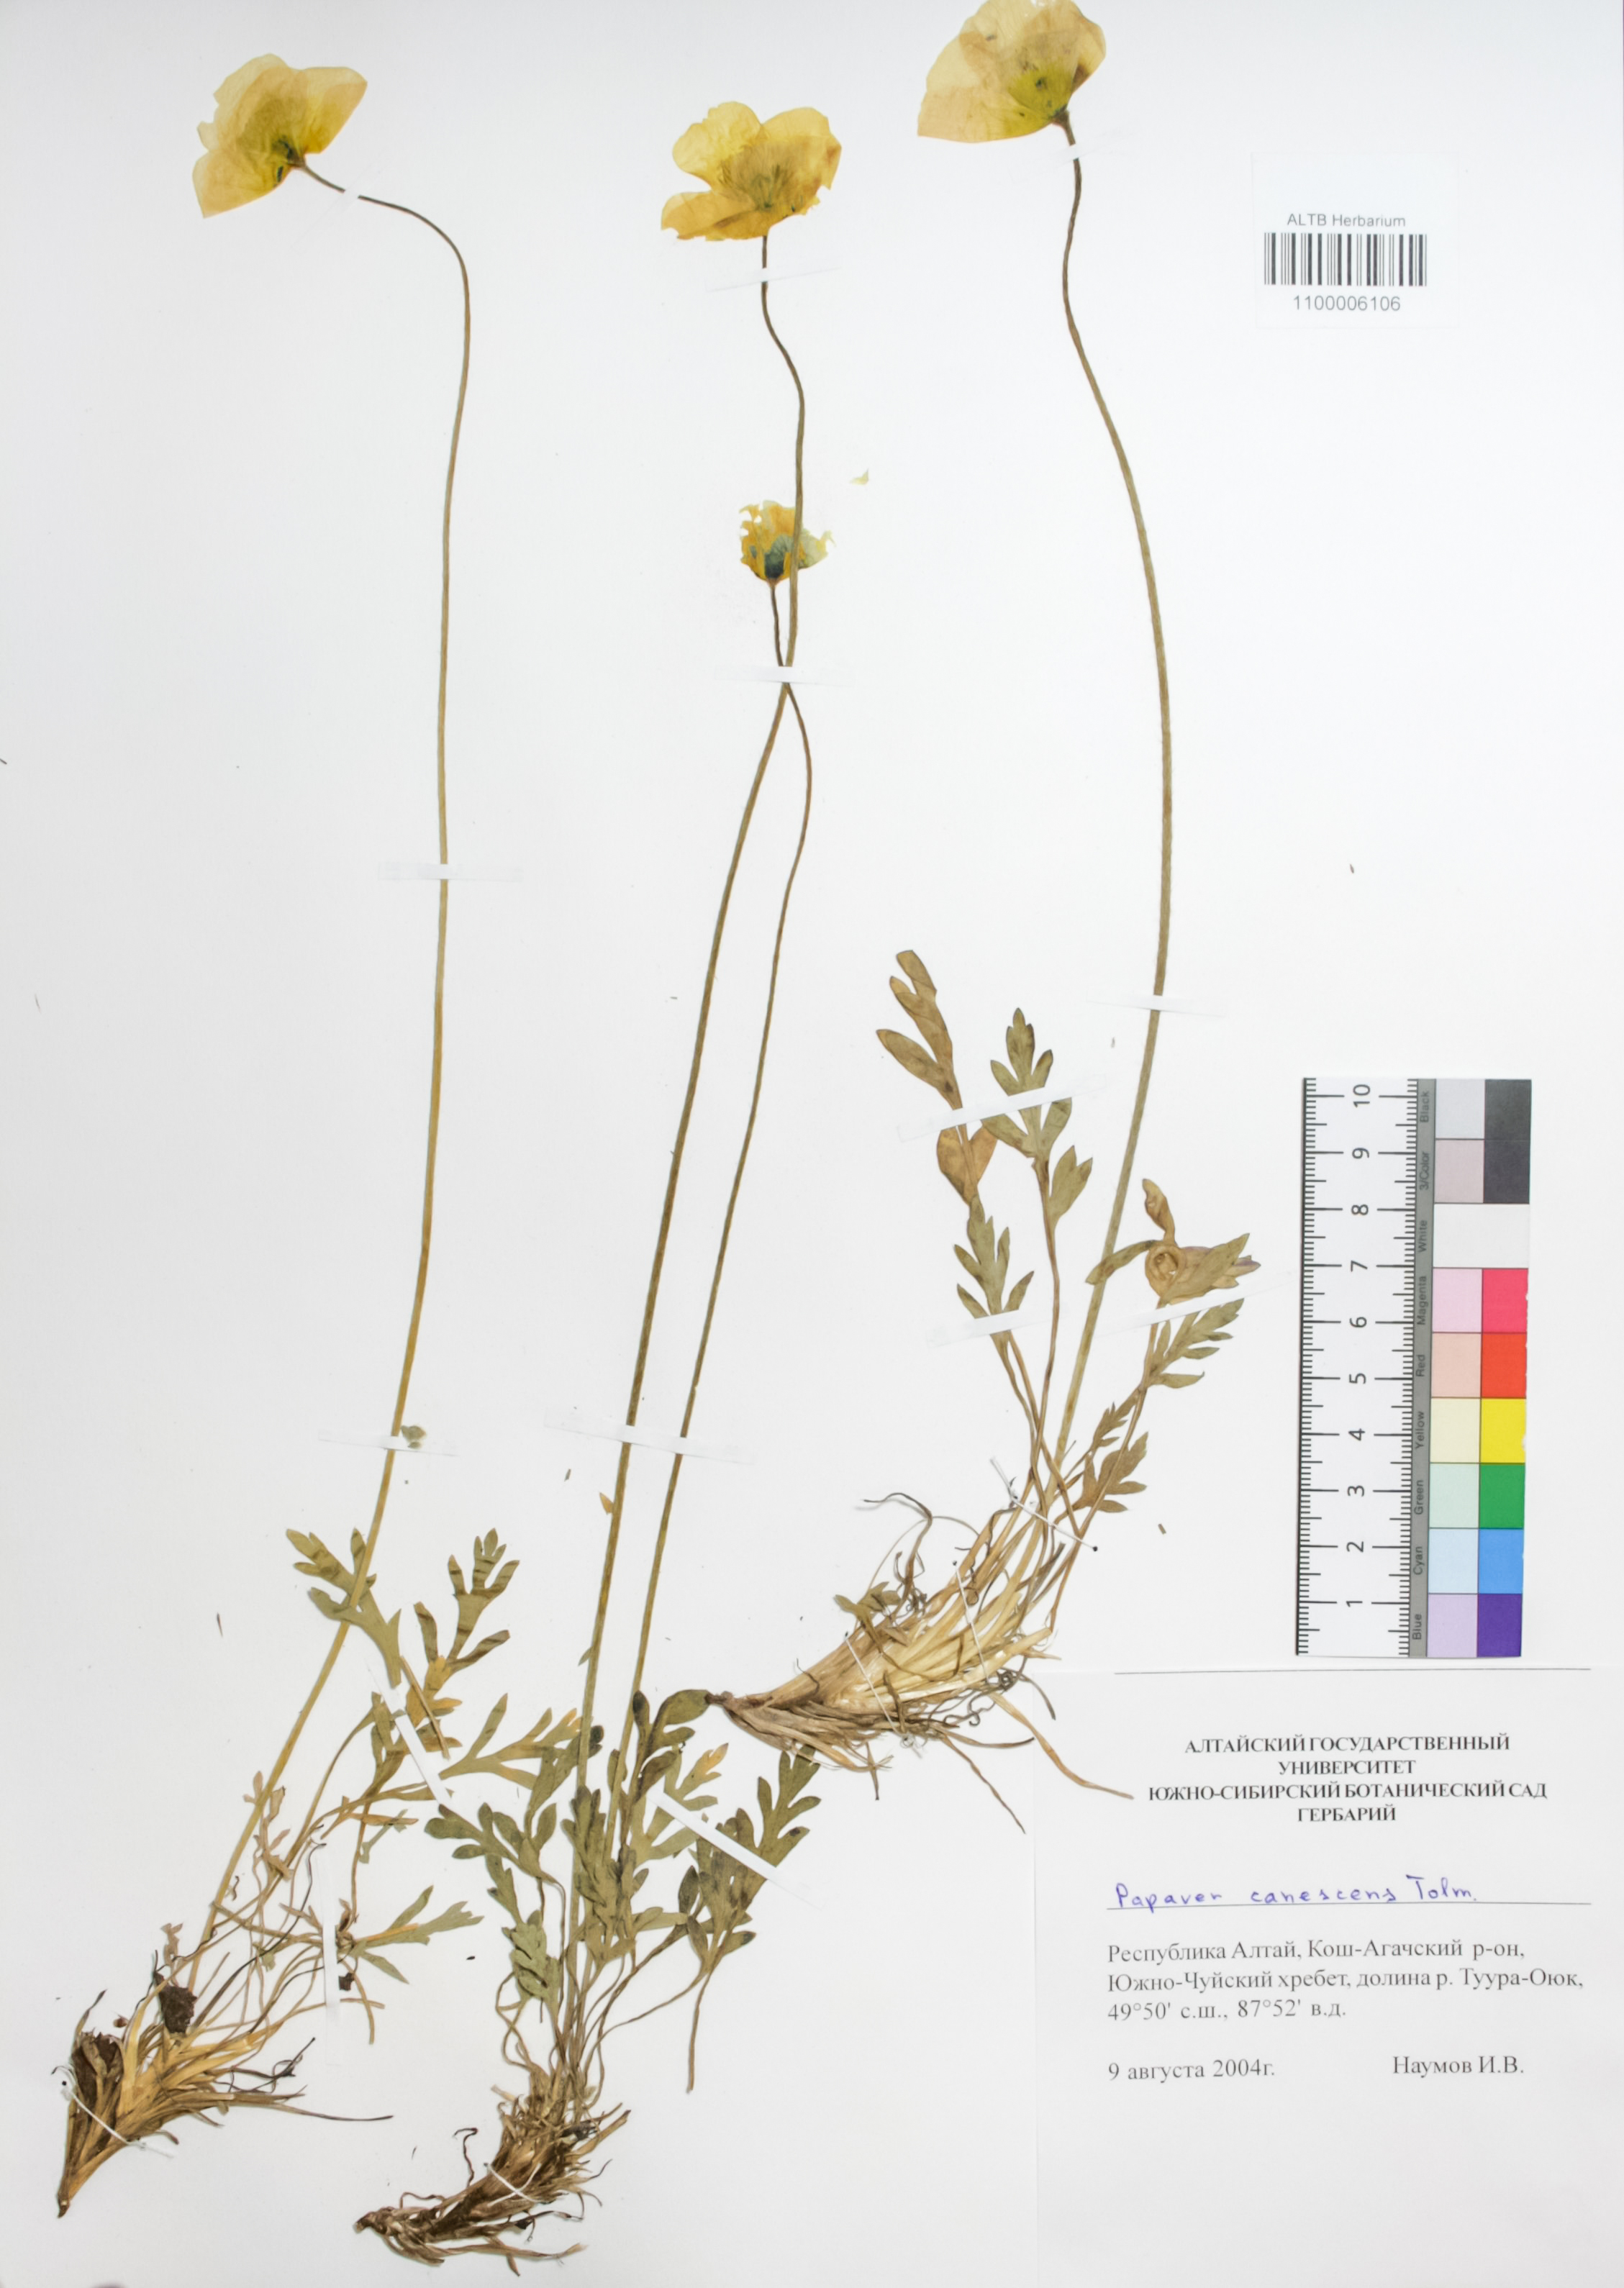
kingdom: Plantae
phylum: Tracheophyta
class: Magnoliopsida
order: Ranunculales
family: Papaveraceae
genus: Papaver
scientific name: Papaver canescens
